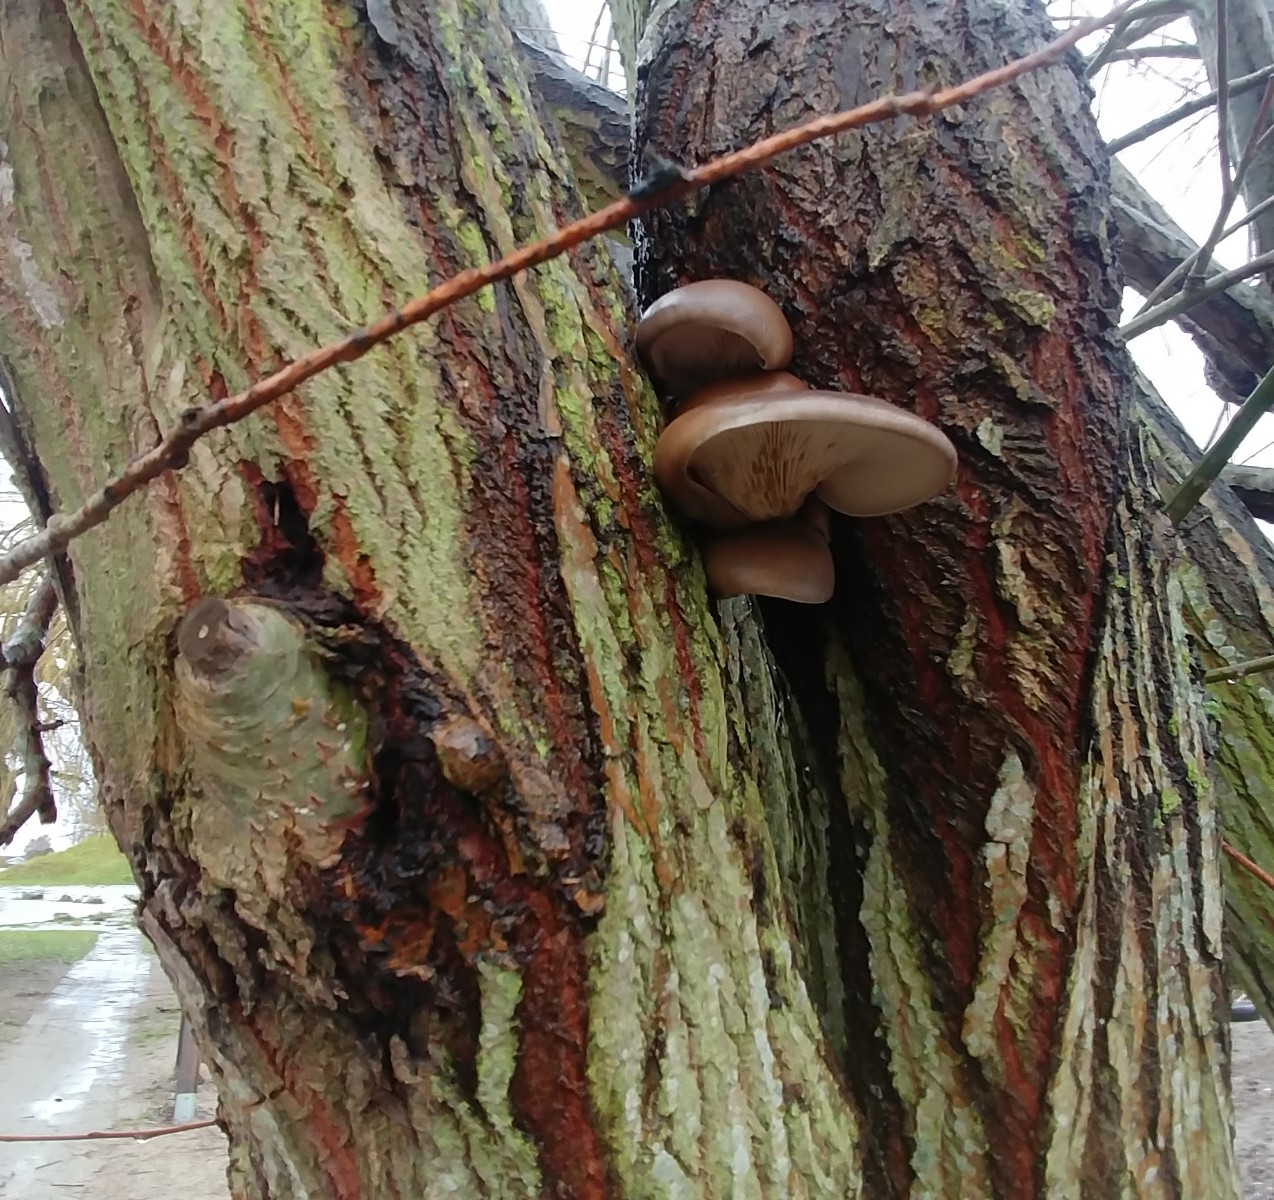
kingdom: Fungi
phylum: Basidiomycota
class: Agaricomycetes
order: Agaricales
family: Pleurotaceae
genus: Pleurotus
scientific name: Pleurotus ostreatus
